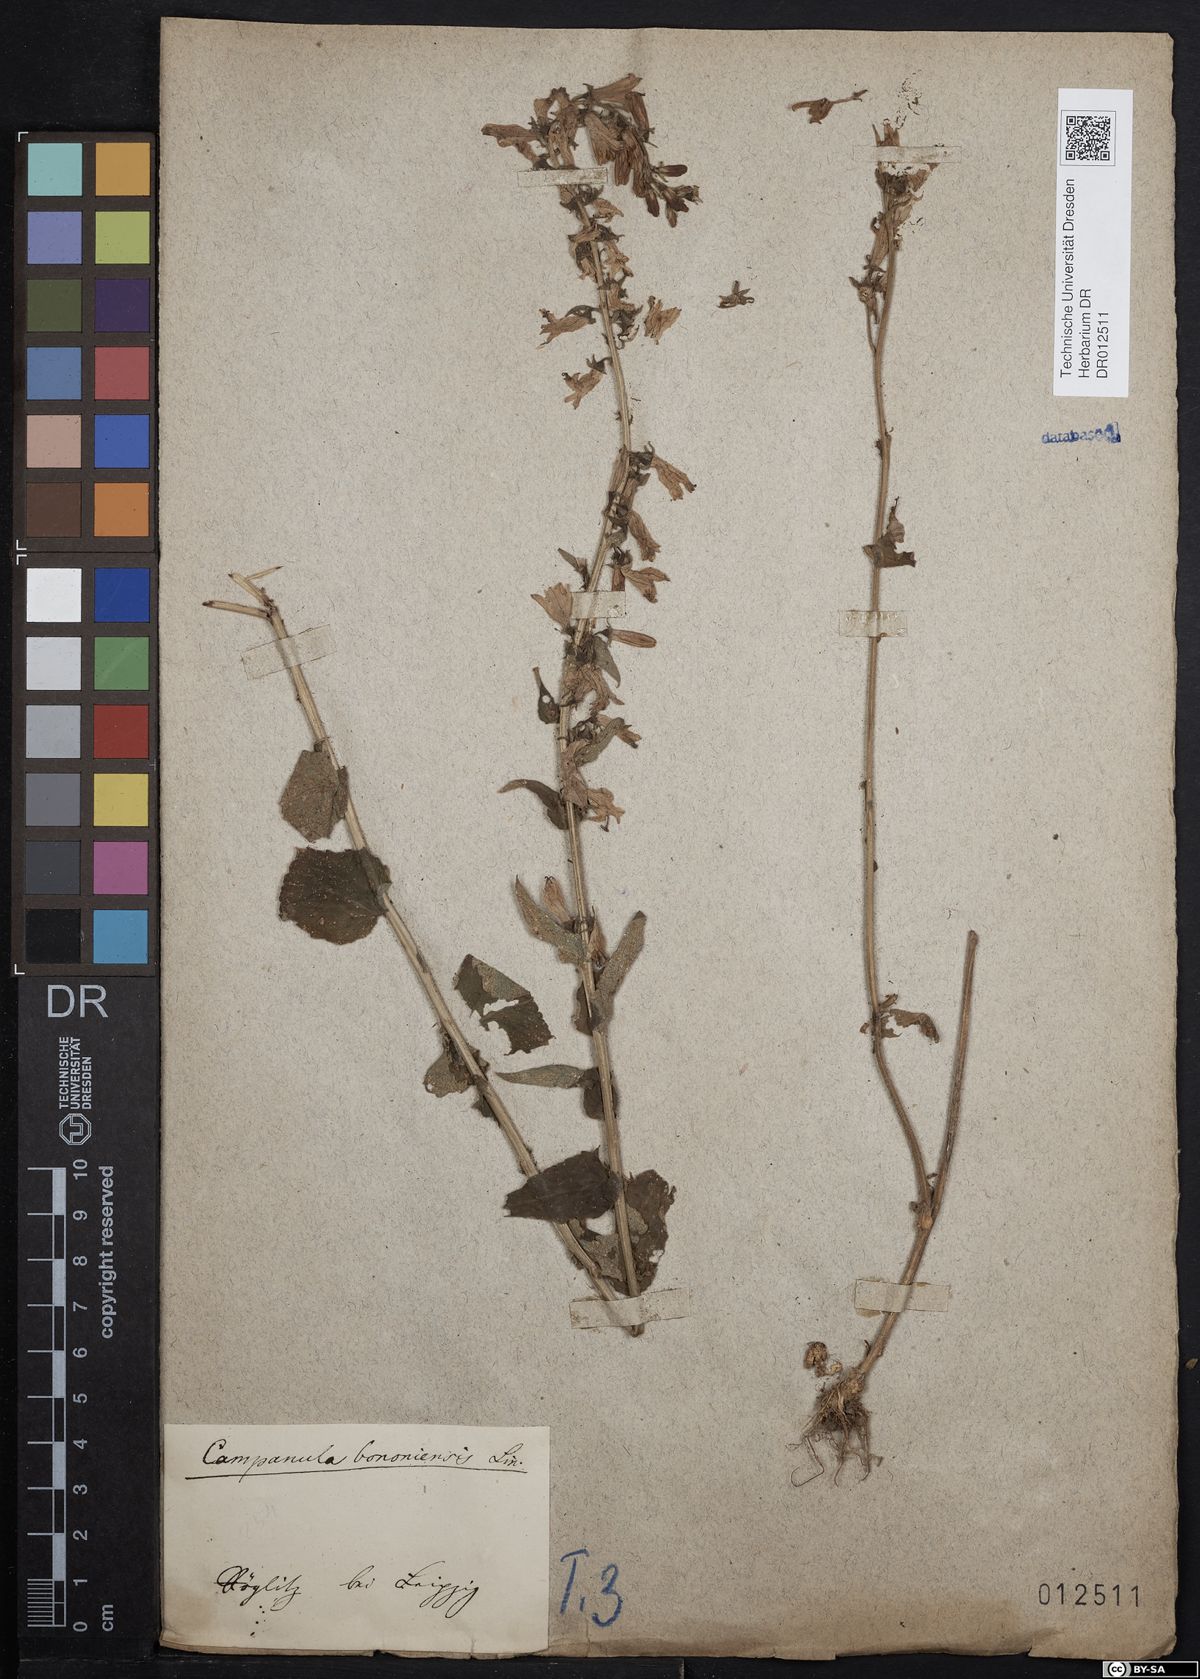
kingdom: Plantae
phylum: Tracheophyta
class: Magnoliopsida
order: Asterales
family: Campanulaceae
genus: Campanula
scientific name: Campanula bononiensis
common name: Pale bellflower
